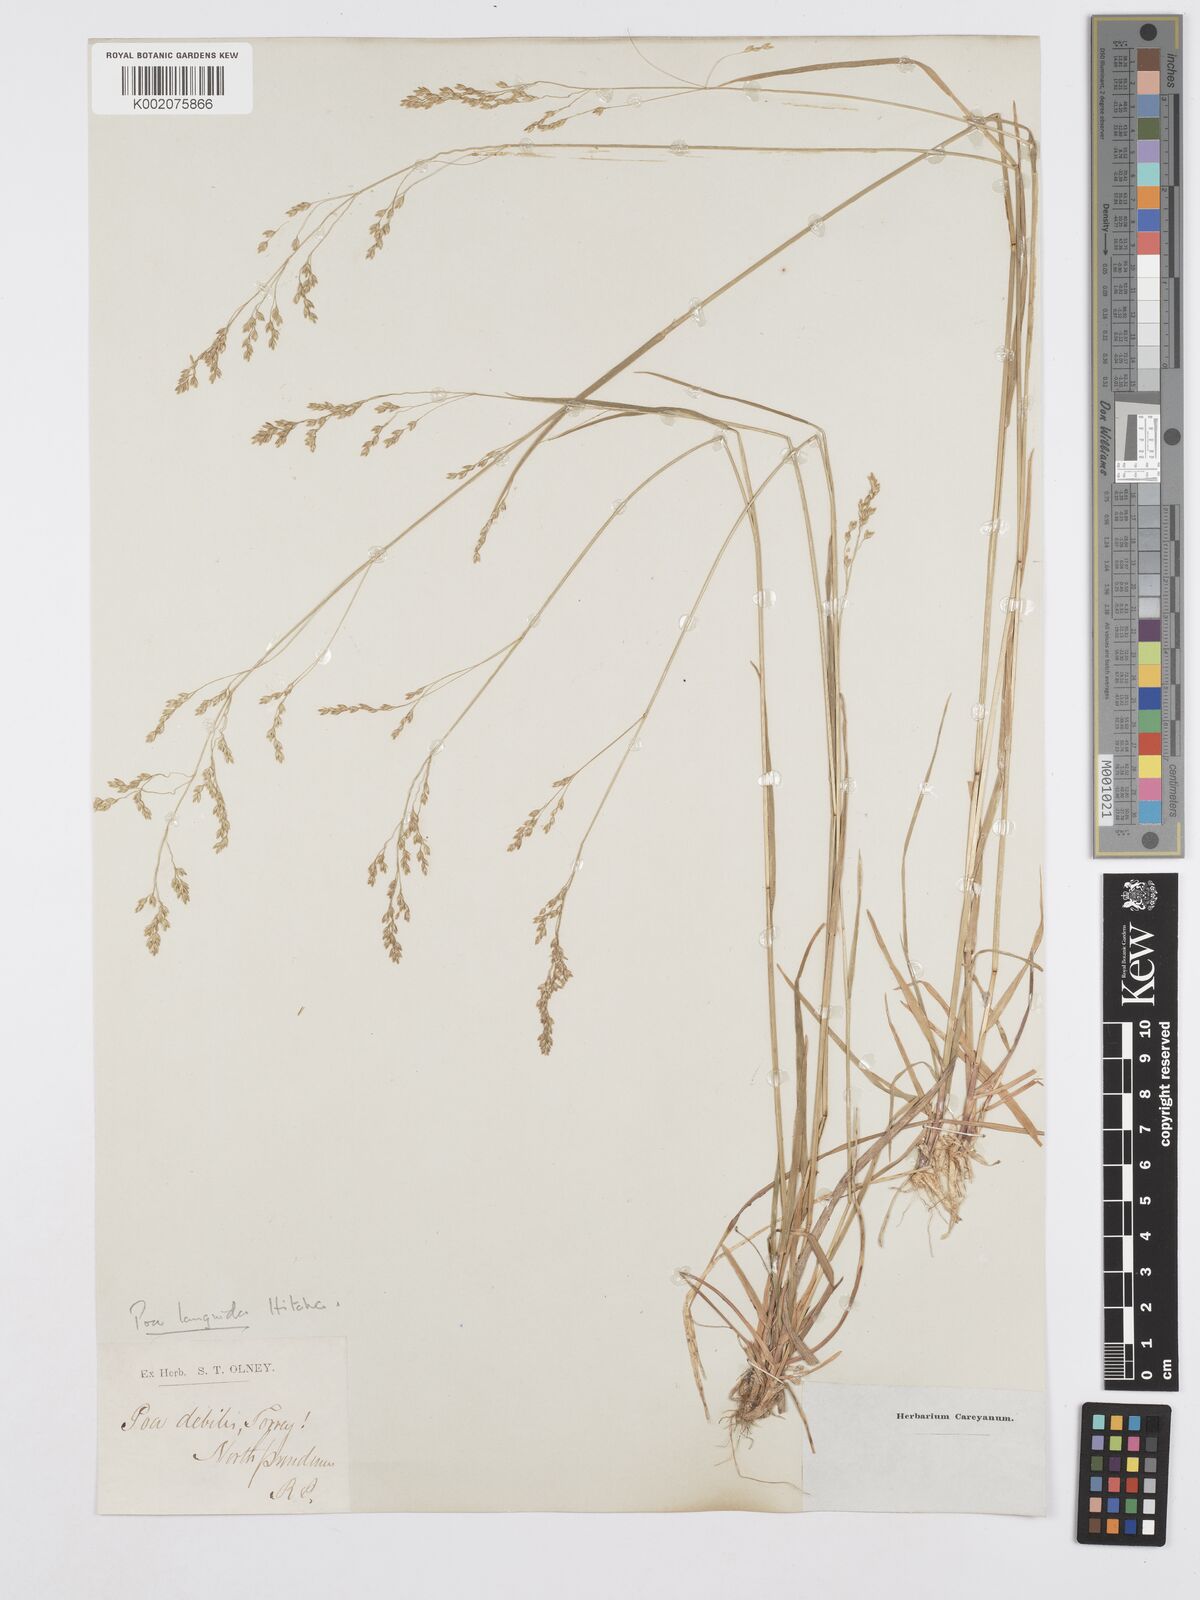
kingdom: Plantae
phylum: Tracheophyta
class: Liliopsida
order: Poales
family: Poaceae
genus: Poa
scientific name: Poa saltuensis
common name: Bushy pasture speargrass
